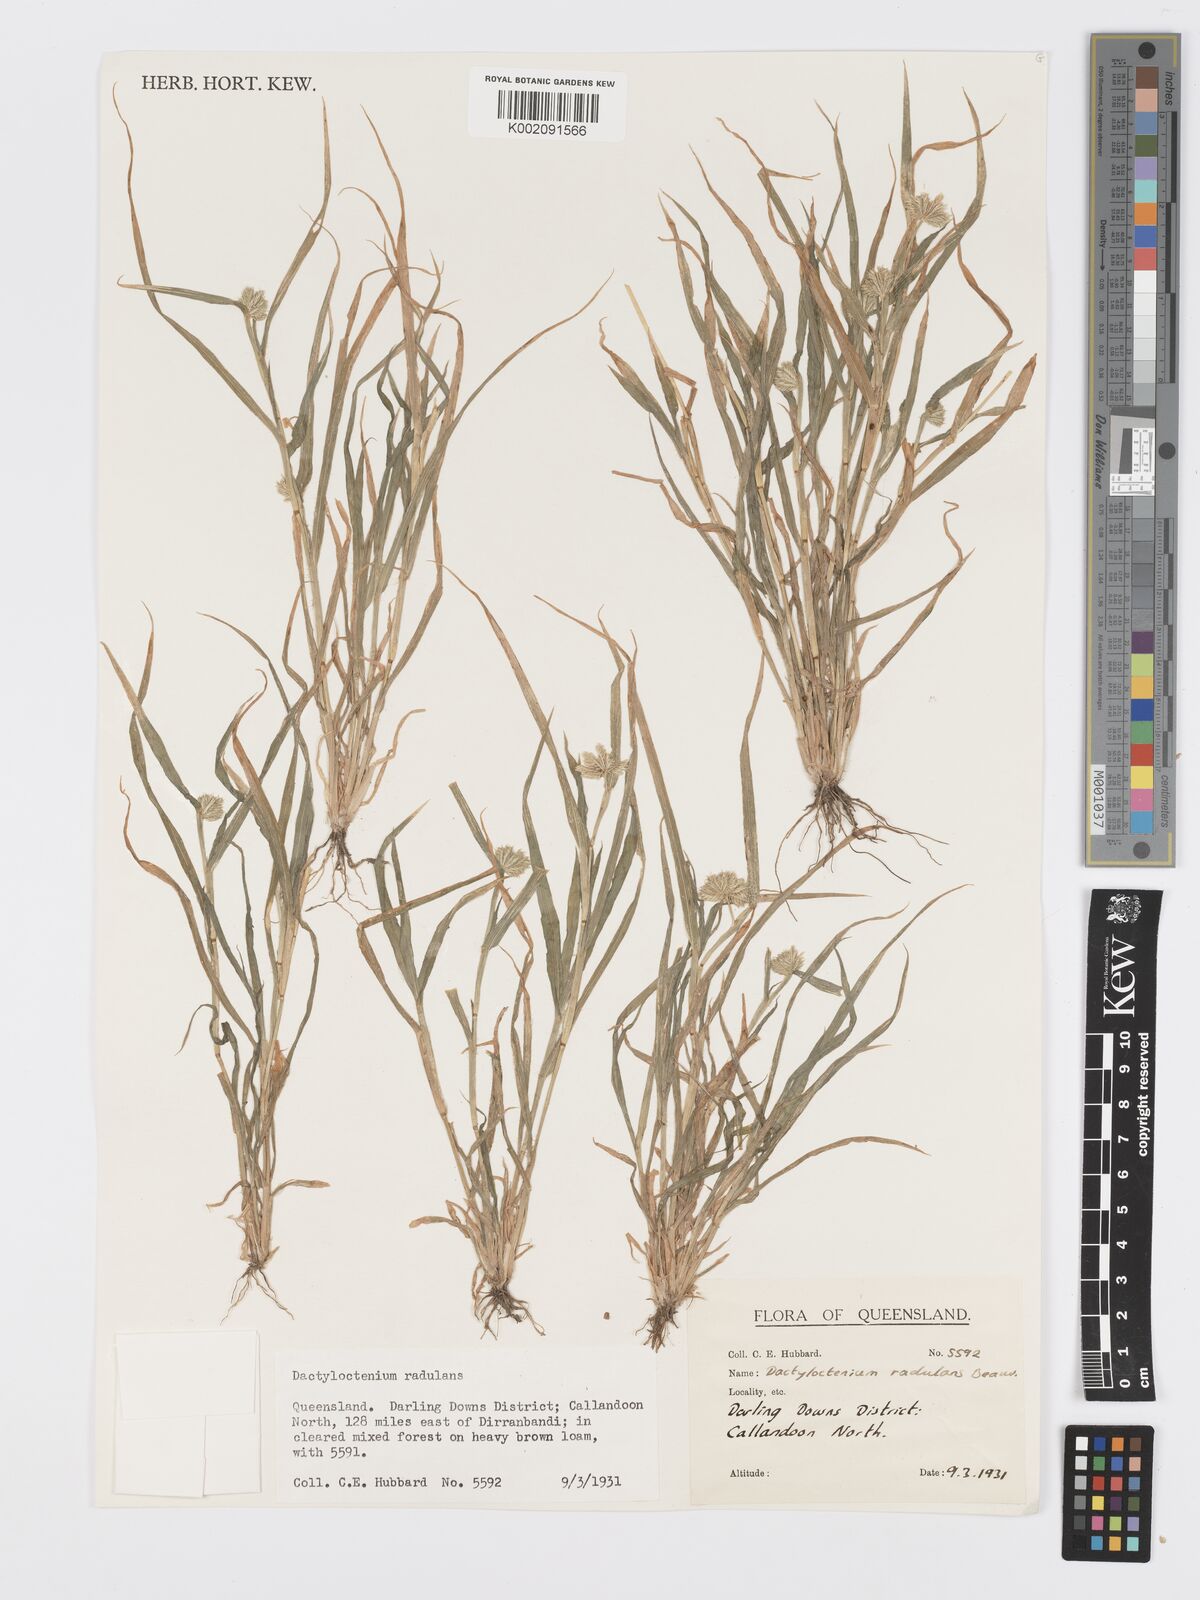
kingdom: Plantae
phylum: Tracheophyta
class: Liliopsida
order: Poales
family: Poaceae
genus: Dactyloctenium
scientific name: Dactyloctenium radulans
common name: Button-grass
